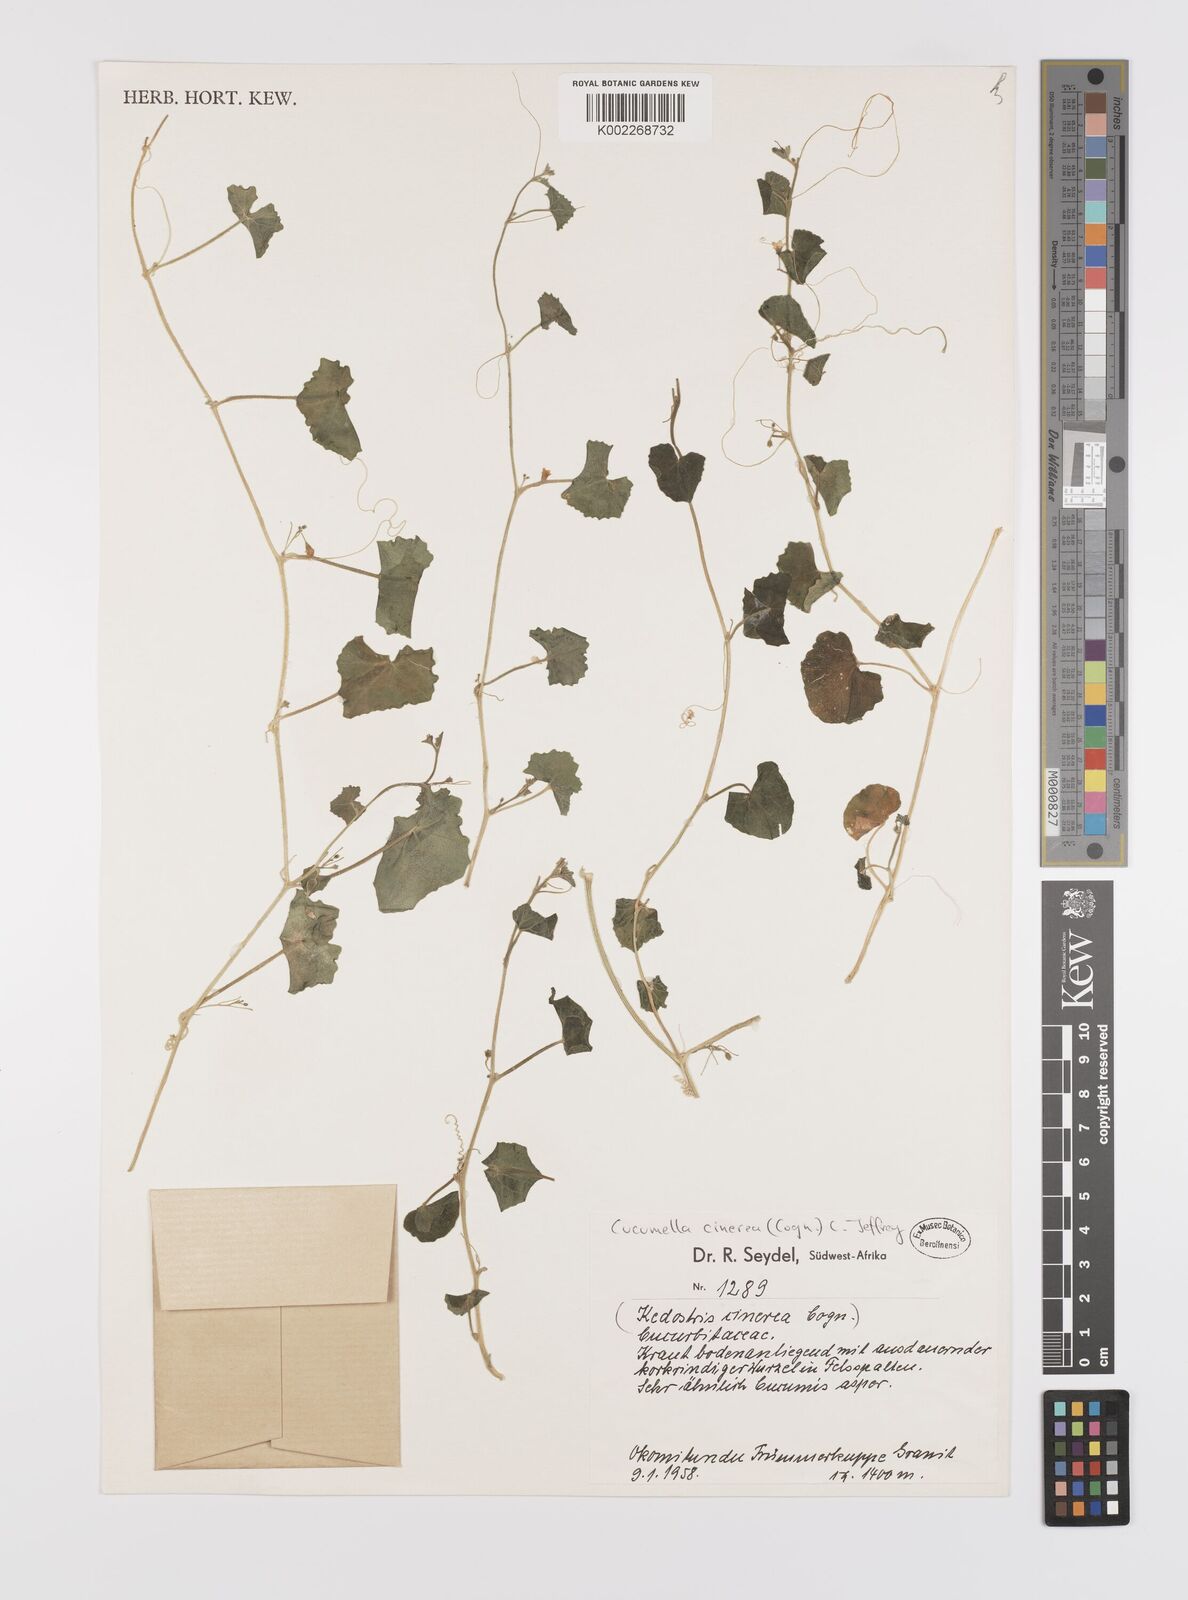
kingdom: Plantae
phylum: Tracheophyta
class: Magnoliopsida
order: Cucurbitales
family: Cucurbitaceae
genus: Cucumis
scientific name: Cucumis cinereus
